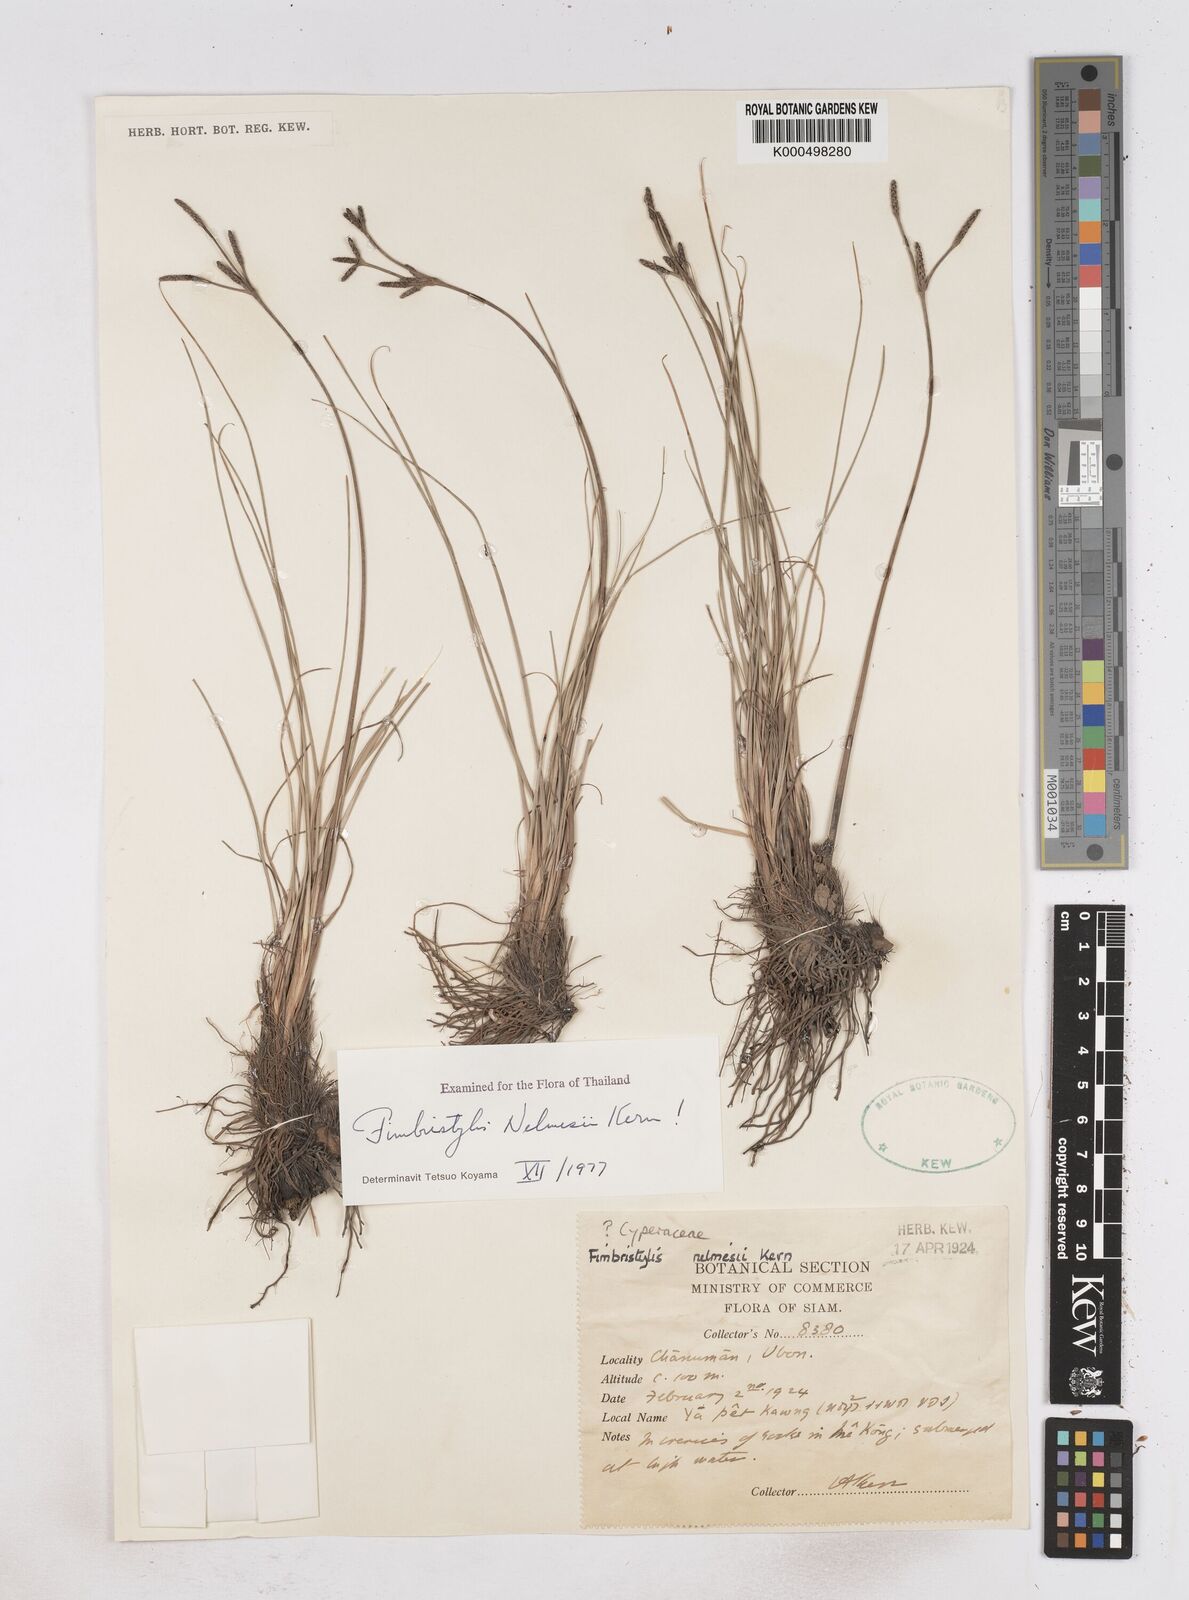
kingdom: Plantae
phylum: Tracheophyta
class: Liliopsida
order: Poales
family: Cyperaceae
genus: Fimbristylis
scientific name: Fimbristylis nelmesii
